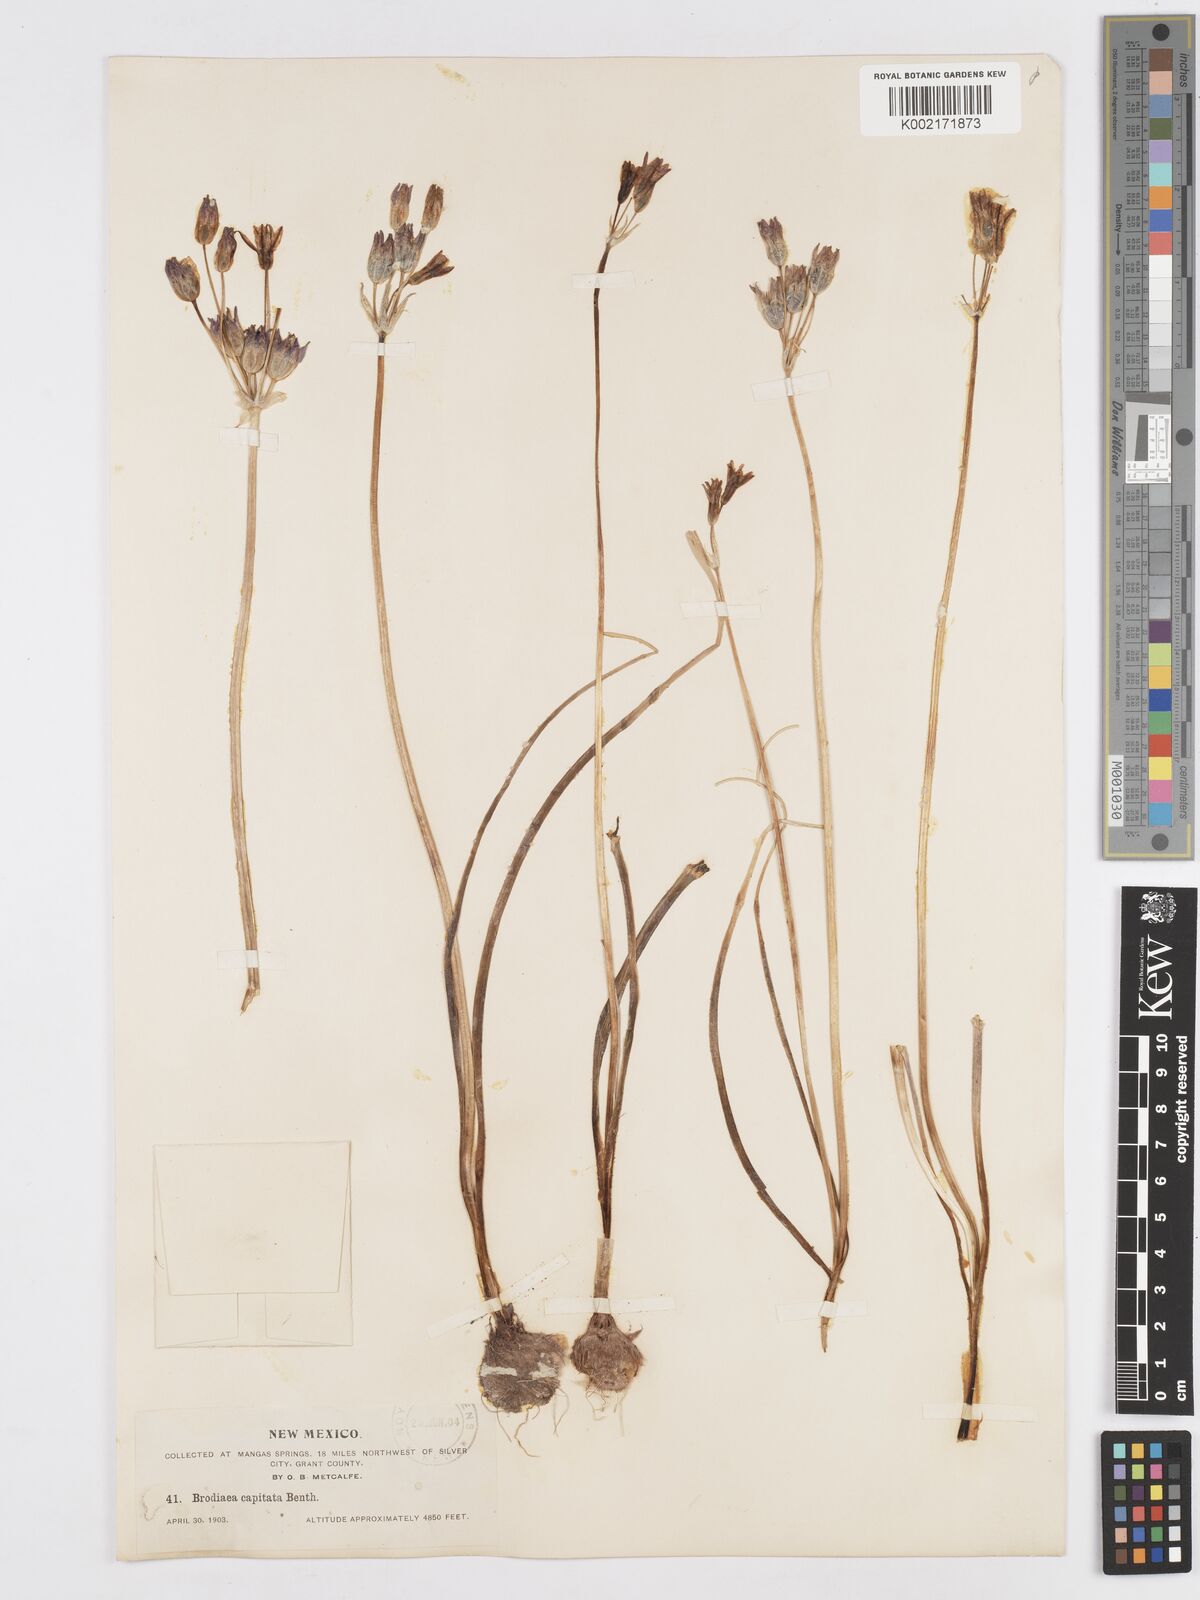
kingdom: Plantae
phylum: Tracheophyta
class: Liliopsida
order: Asparagales
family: Asparagaceae
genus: Dichelostemma
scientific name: Dichelostemma congestum
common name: Fork-tooth ookow
